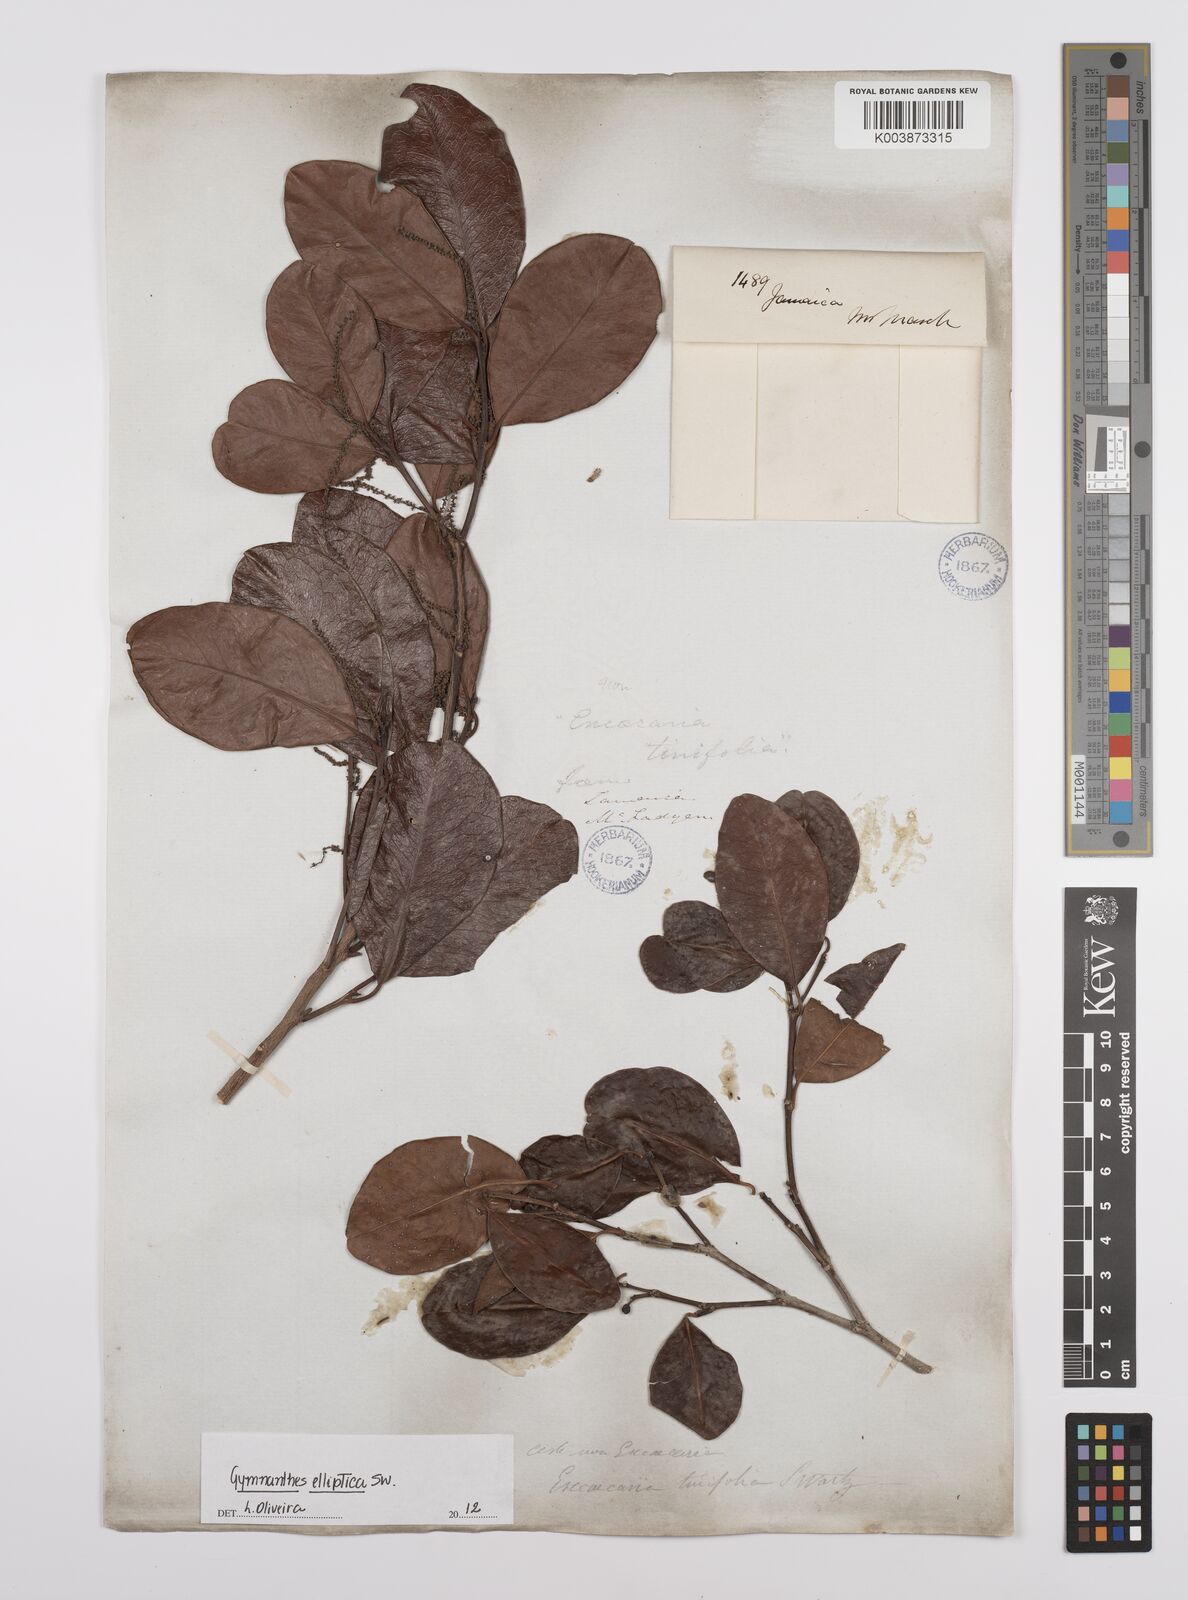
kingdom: Plantae
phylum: Tracheophyta
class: Magnoliopsida
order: Malpighiales
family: Euphorbiaceae
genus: Dendrocousinsia
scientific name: Dendrocousinsia elliptica
